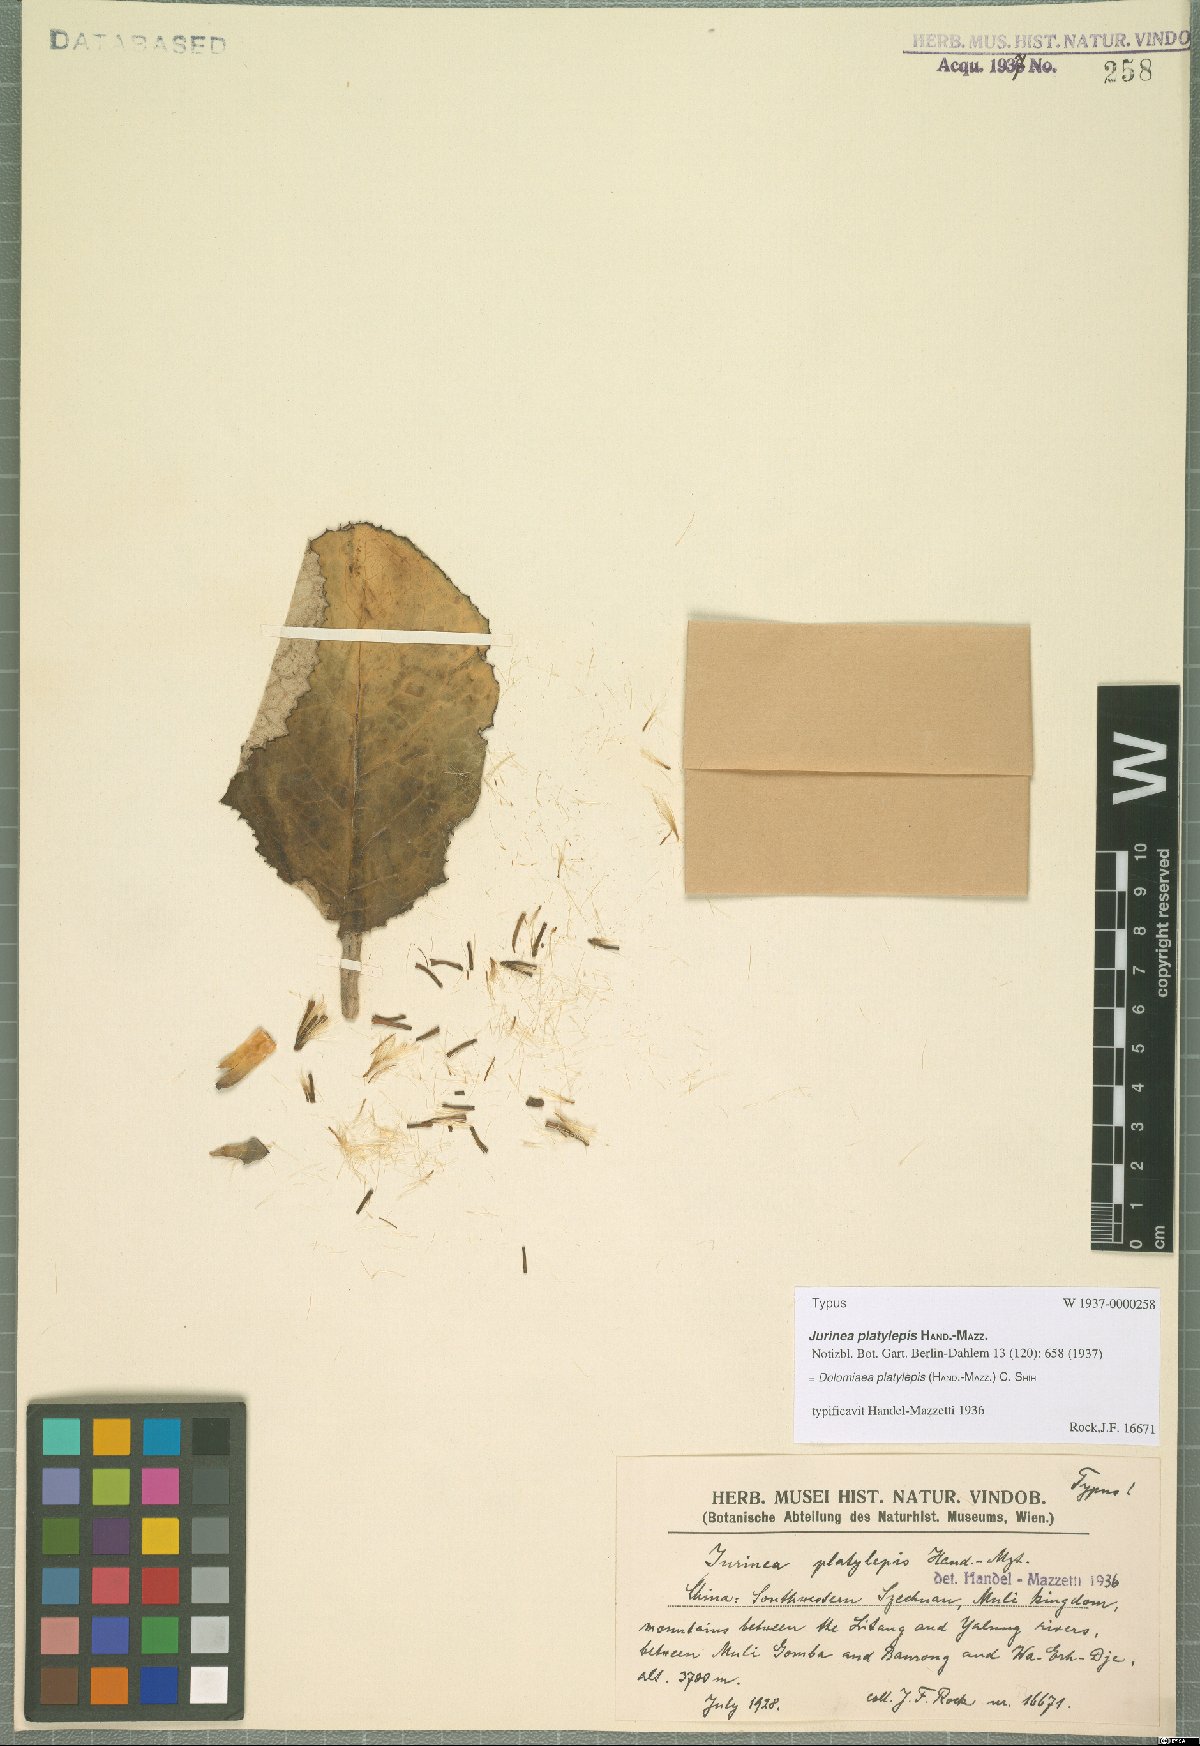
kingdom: Plantae
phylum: Tracheophyta
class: Magnoliopsida
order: Asterales
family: Asteraceae
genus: Dolomiaea
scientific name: Dolomiaea platylepis
